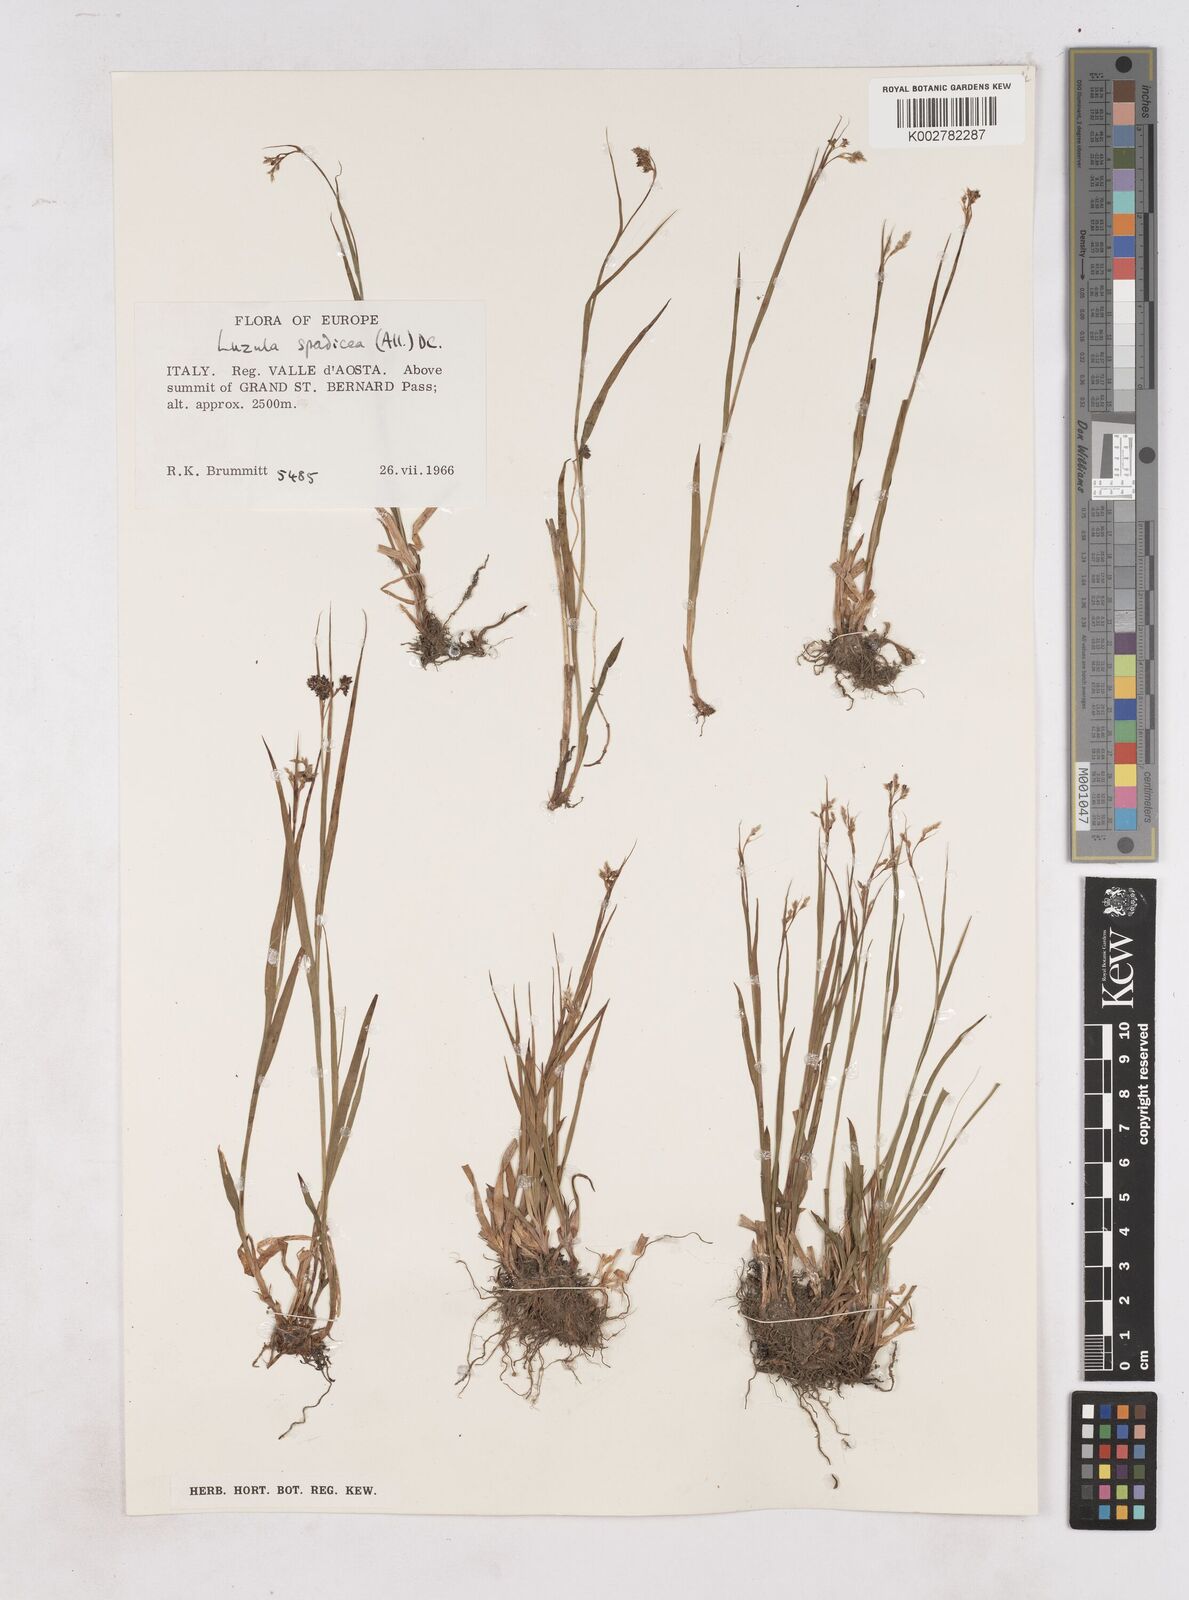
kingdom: Plantae
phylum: Tracheophyta
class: Liliopsida
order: Poales
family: Juncaceae
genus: Luzula
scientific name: Luzula alpinopilosa
